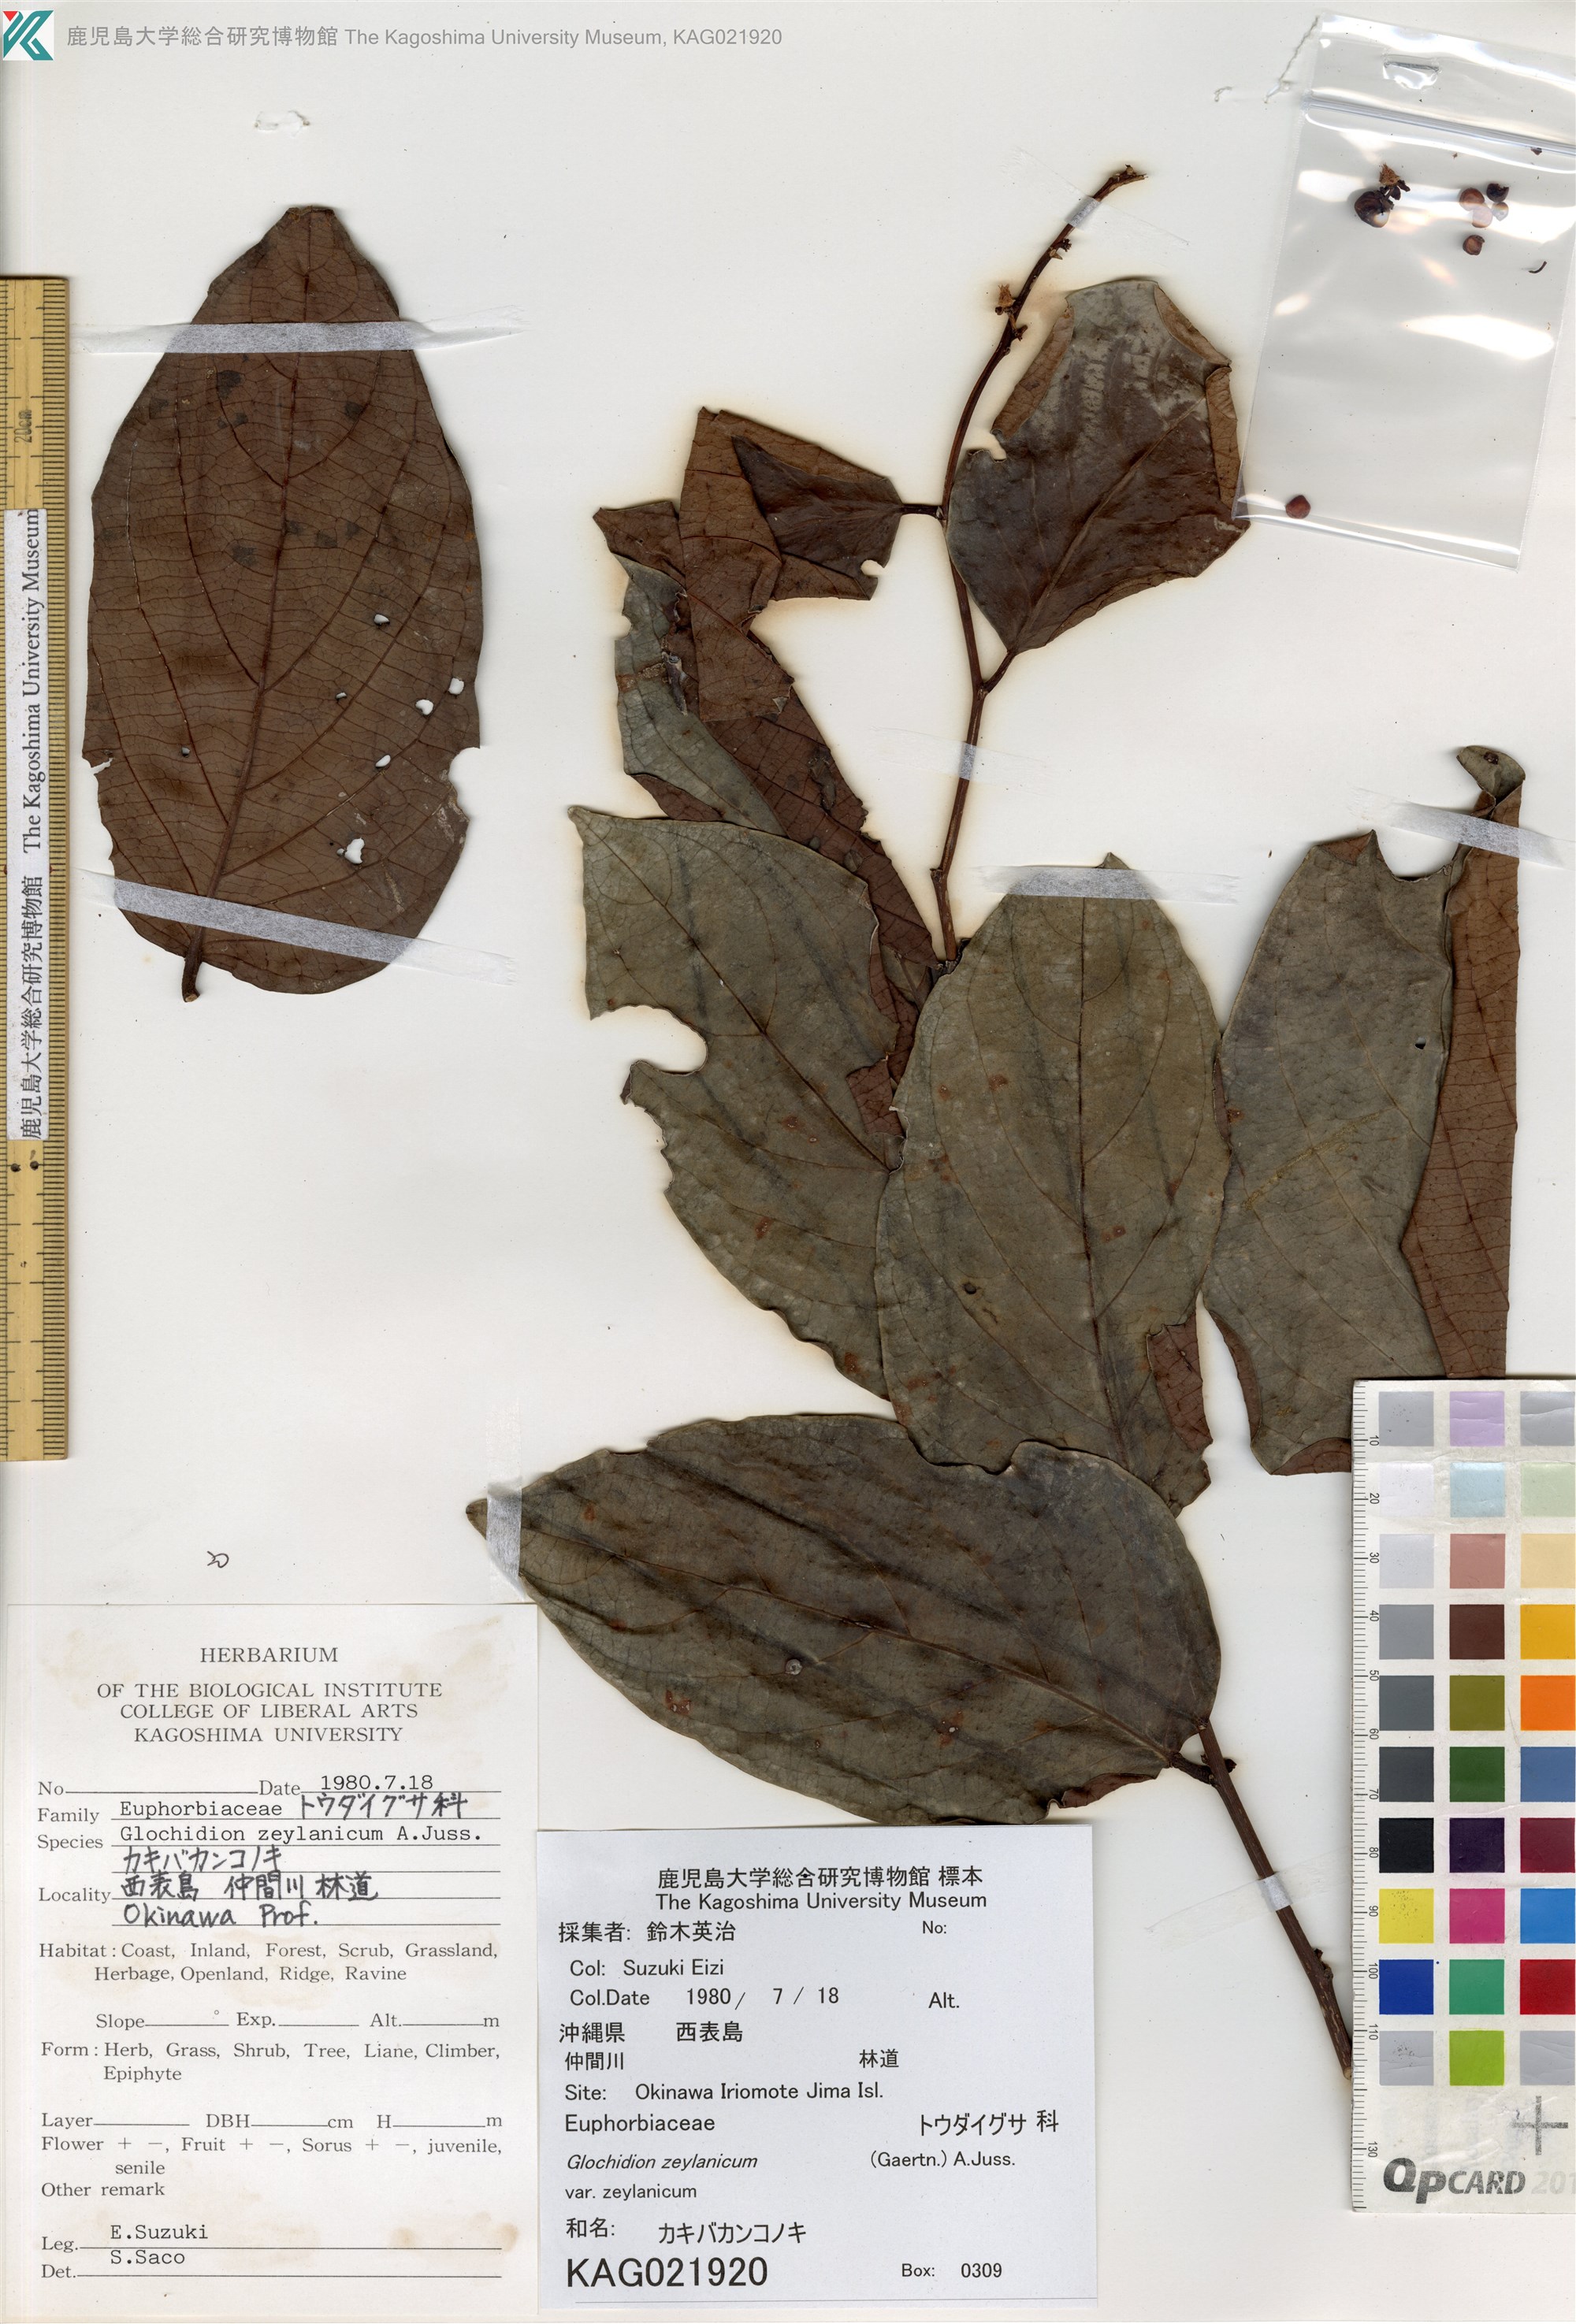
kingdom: Plantae
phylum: Tracheophyta
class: Magnoliopsida
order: Malpighiales
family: Phyllanthaceae
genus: Glochidion
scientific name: Glochidion zeylanicum
